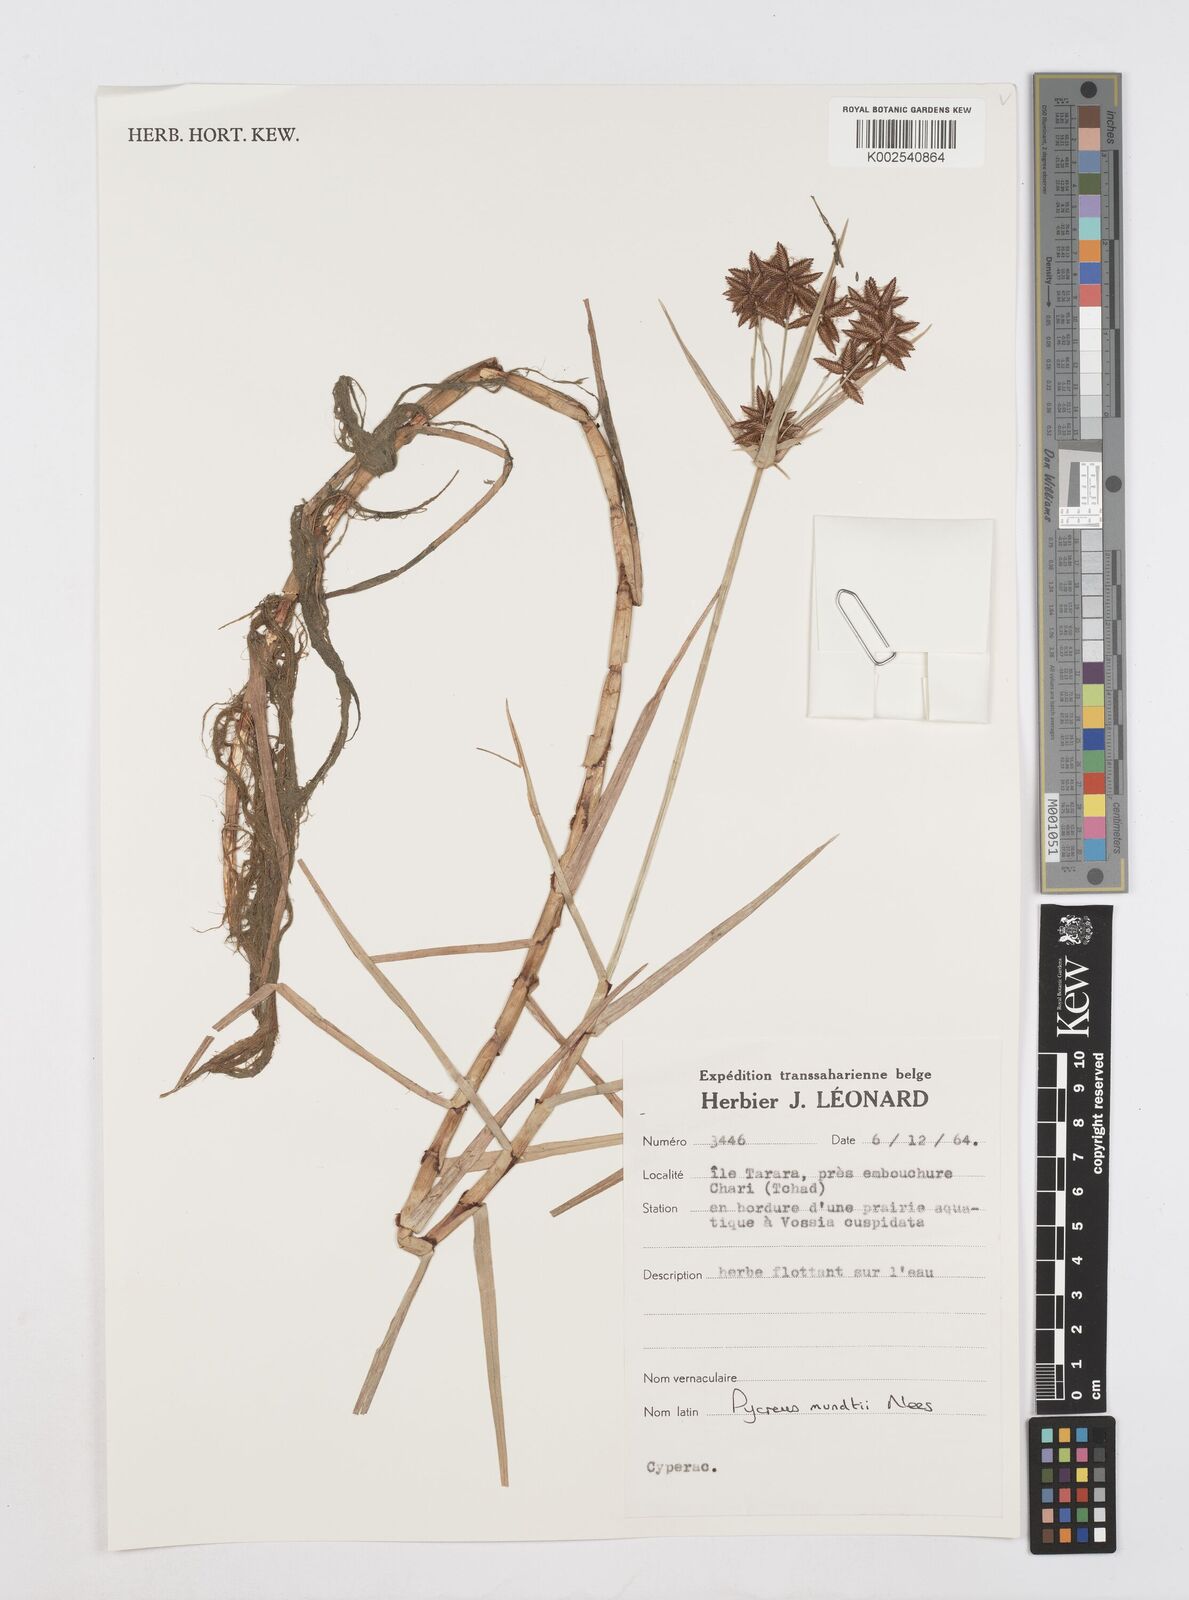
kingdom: Plantae
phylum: Tracheophyta
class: Liliopsida
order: Poales
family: Cyperaceae
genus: Cyperus
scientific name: Cyperus mundii
